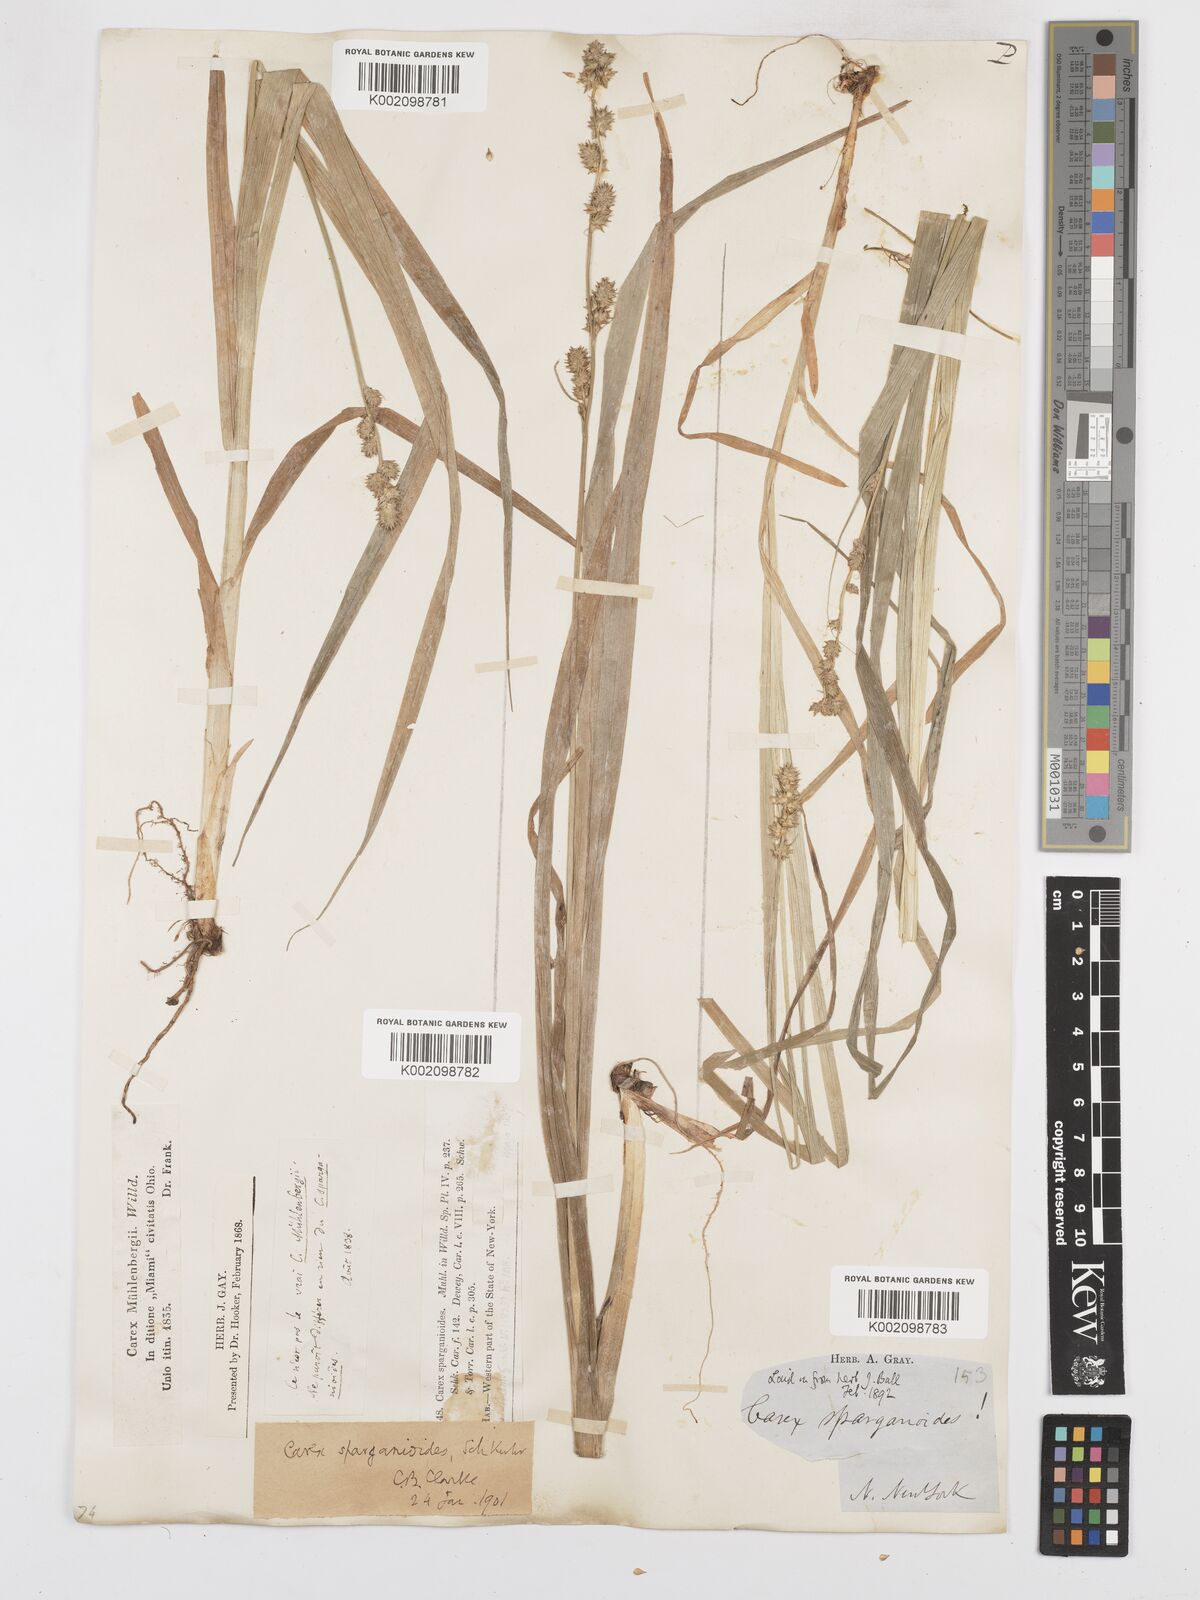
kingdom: Plantae
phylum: Tracheophyta
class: Liliopsida
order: Poales
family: Cyperaceae
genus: Carex
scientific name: Carex sparganioides
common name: Burreed sedge
